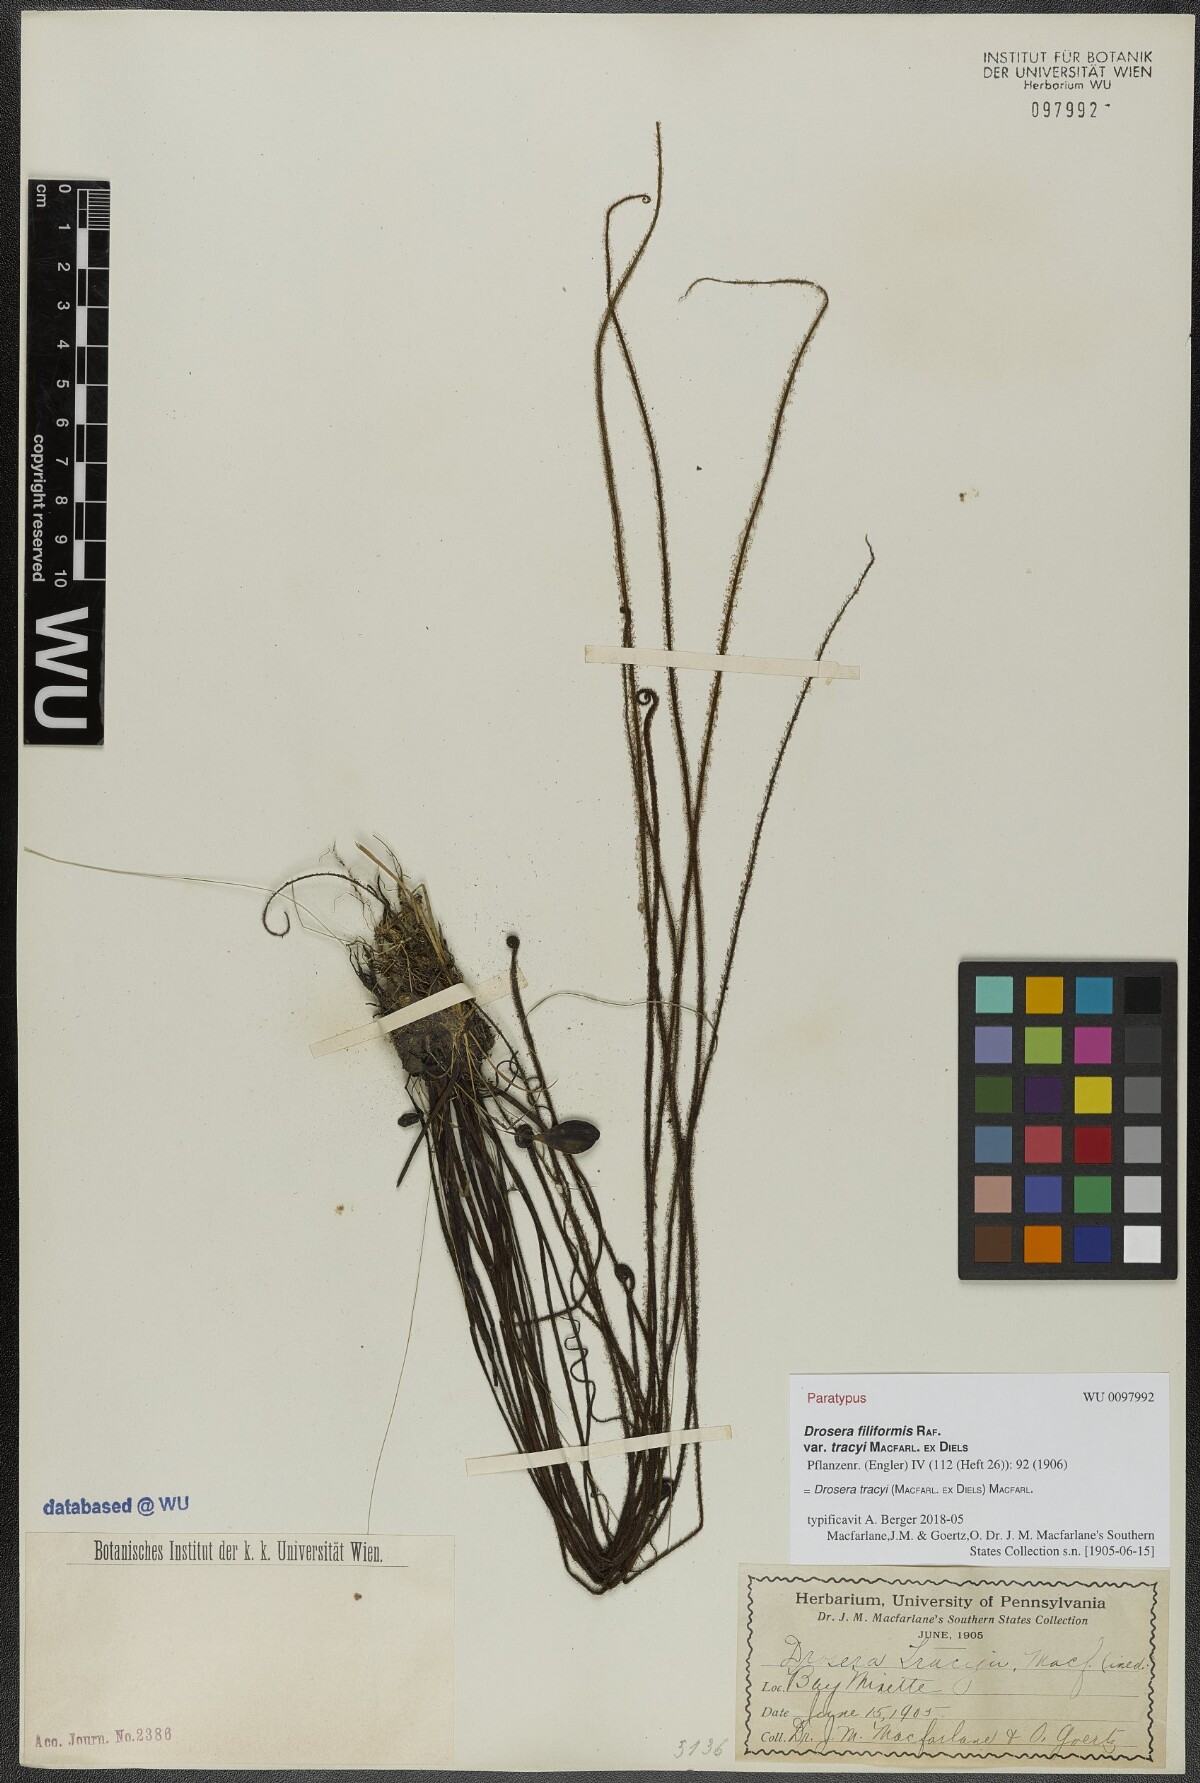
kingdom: Plantae
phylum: Tracheophyta
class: Magnoliopsida
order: Caryophyllales
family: Droseraceae
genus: Drosera
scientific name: Drosera filiformis
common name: Dew-thread
